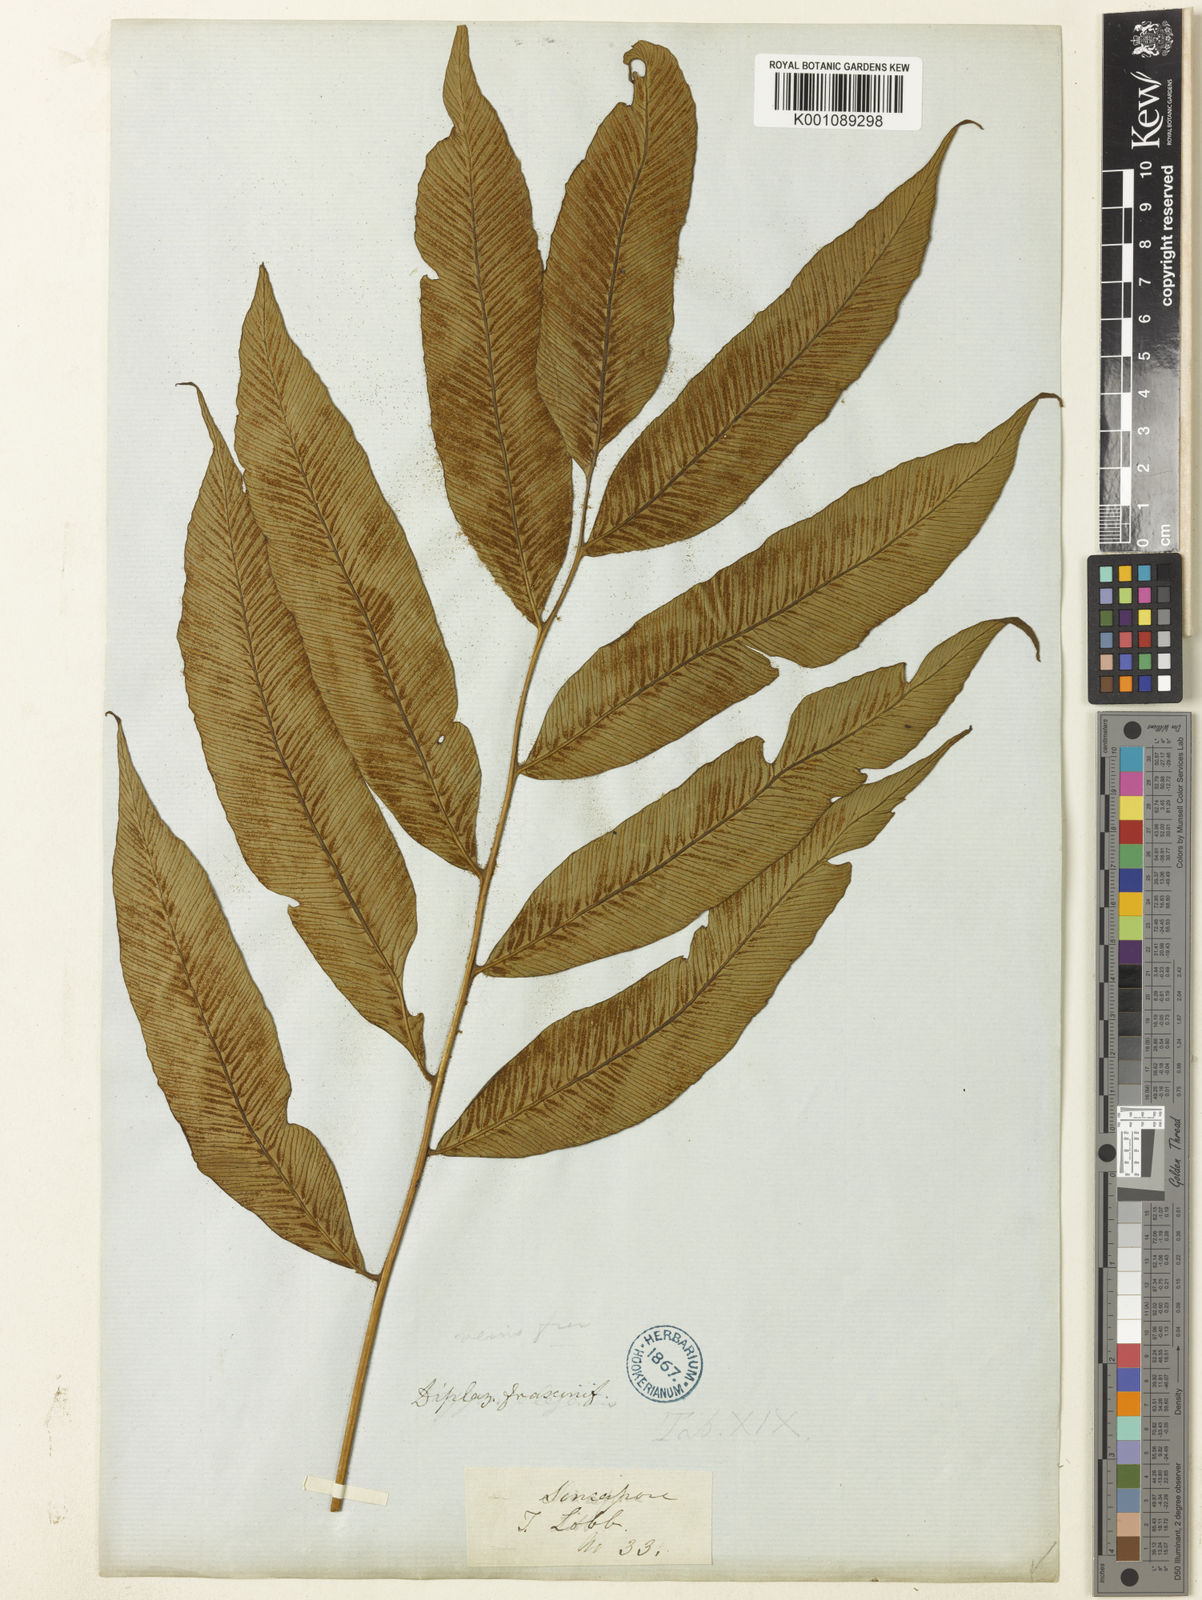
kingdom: Plantae
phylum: Tracheophyta
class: Polypodiopsida
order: Polypodiales
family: Athyriaceae
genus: Diplazium
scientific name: Diplazium lineolatum
